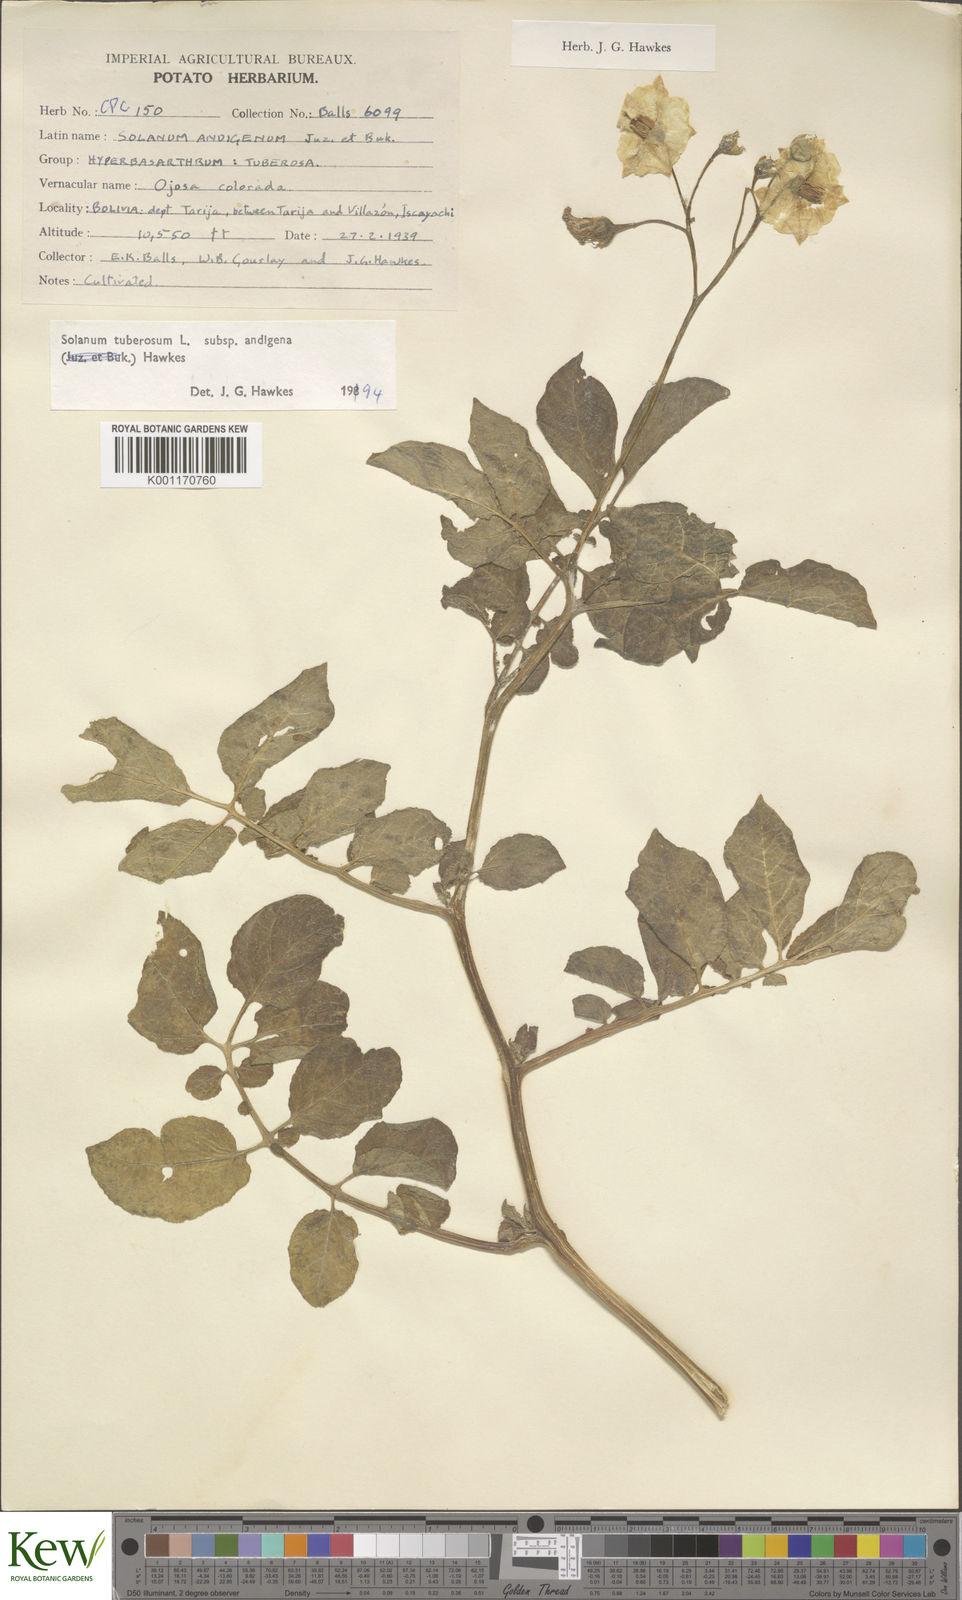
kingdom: Plantae
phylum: Tracheophyta
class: Magnoliopsida
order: Solanales
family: Solanaceae
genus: Solanum
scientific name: Solanum tuberosum
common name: Potato
